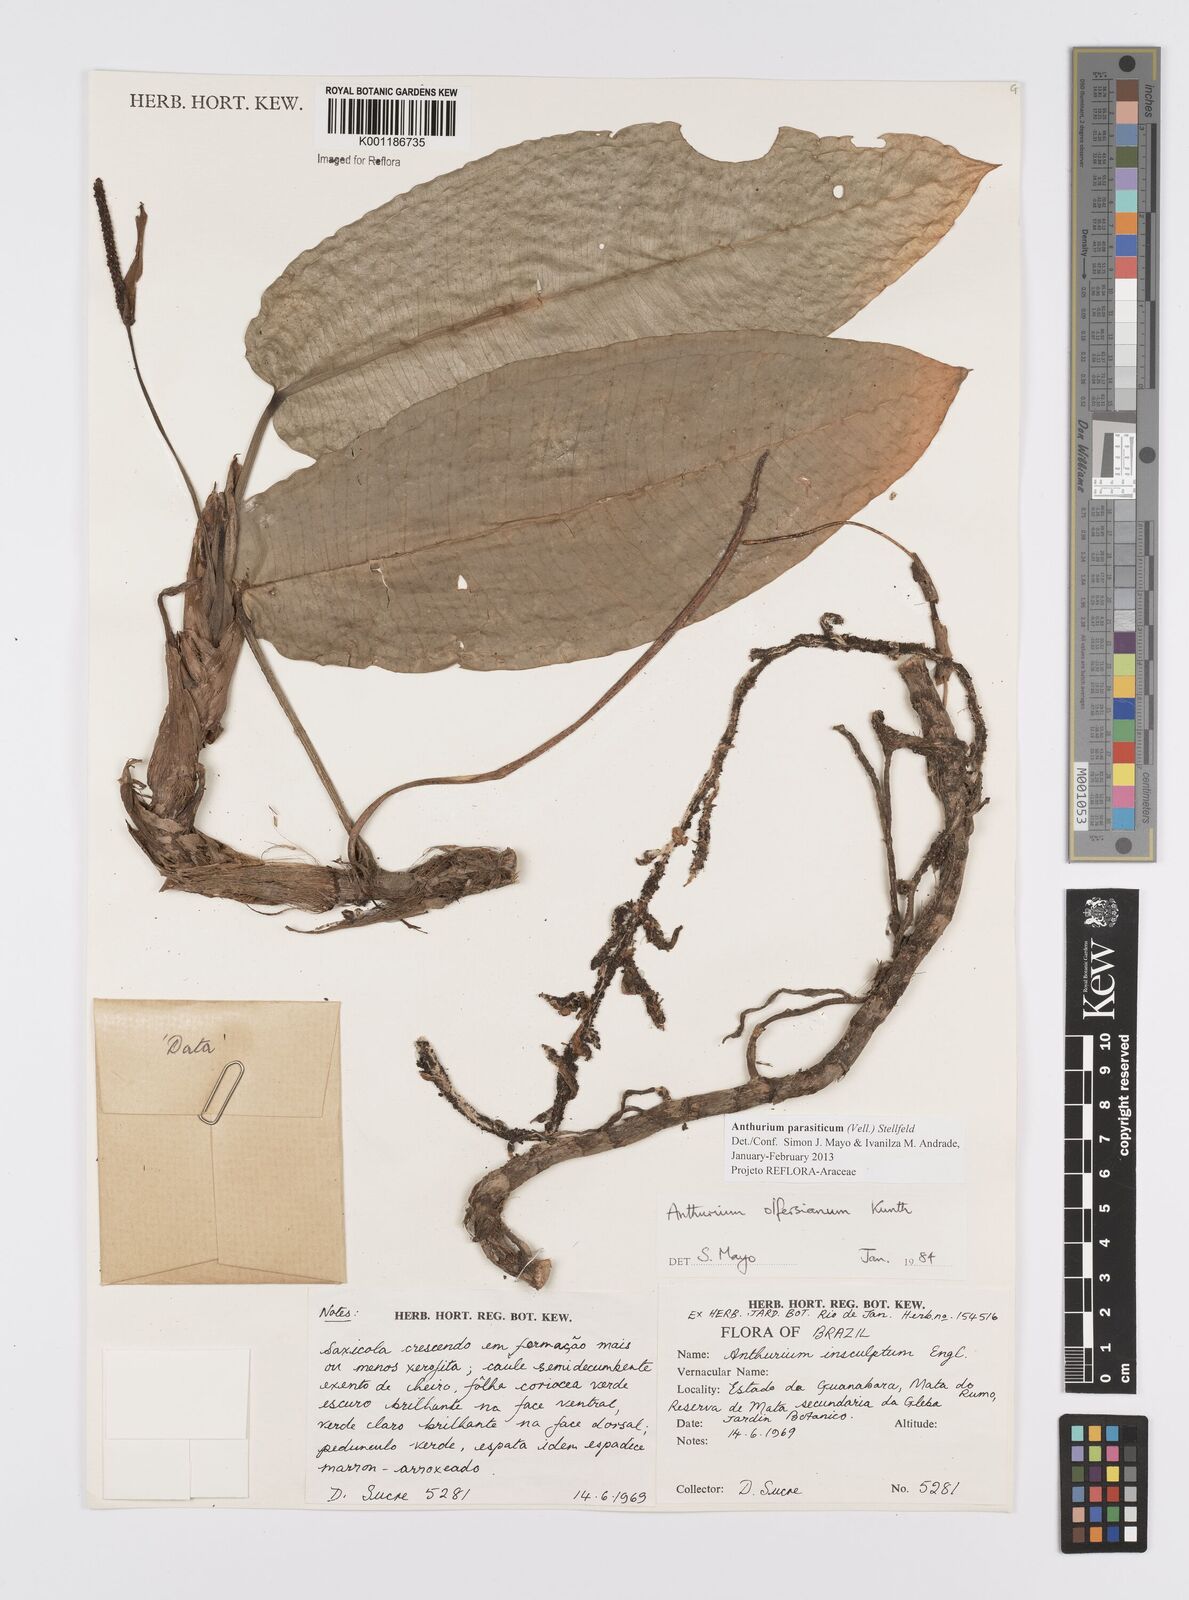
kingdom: Plantae
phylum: Tracheophyta
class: Liliopsida
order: Alismatales
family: Araceae
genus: Anthurium
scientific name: Anthurium parasiticum
